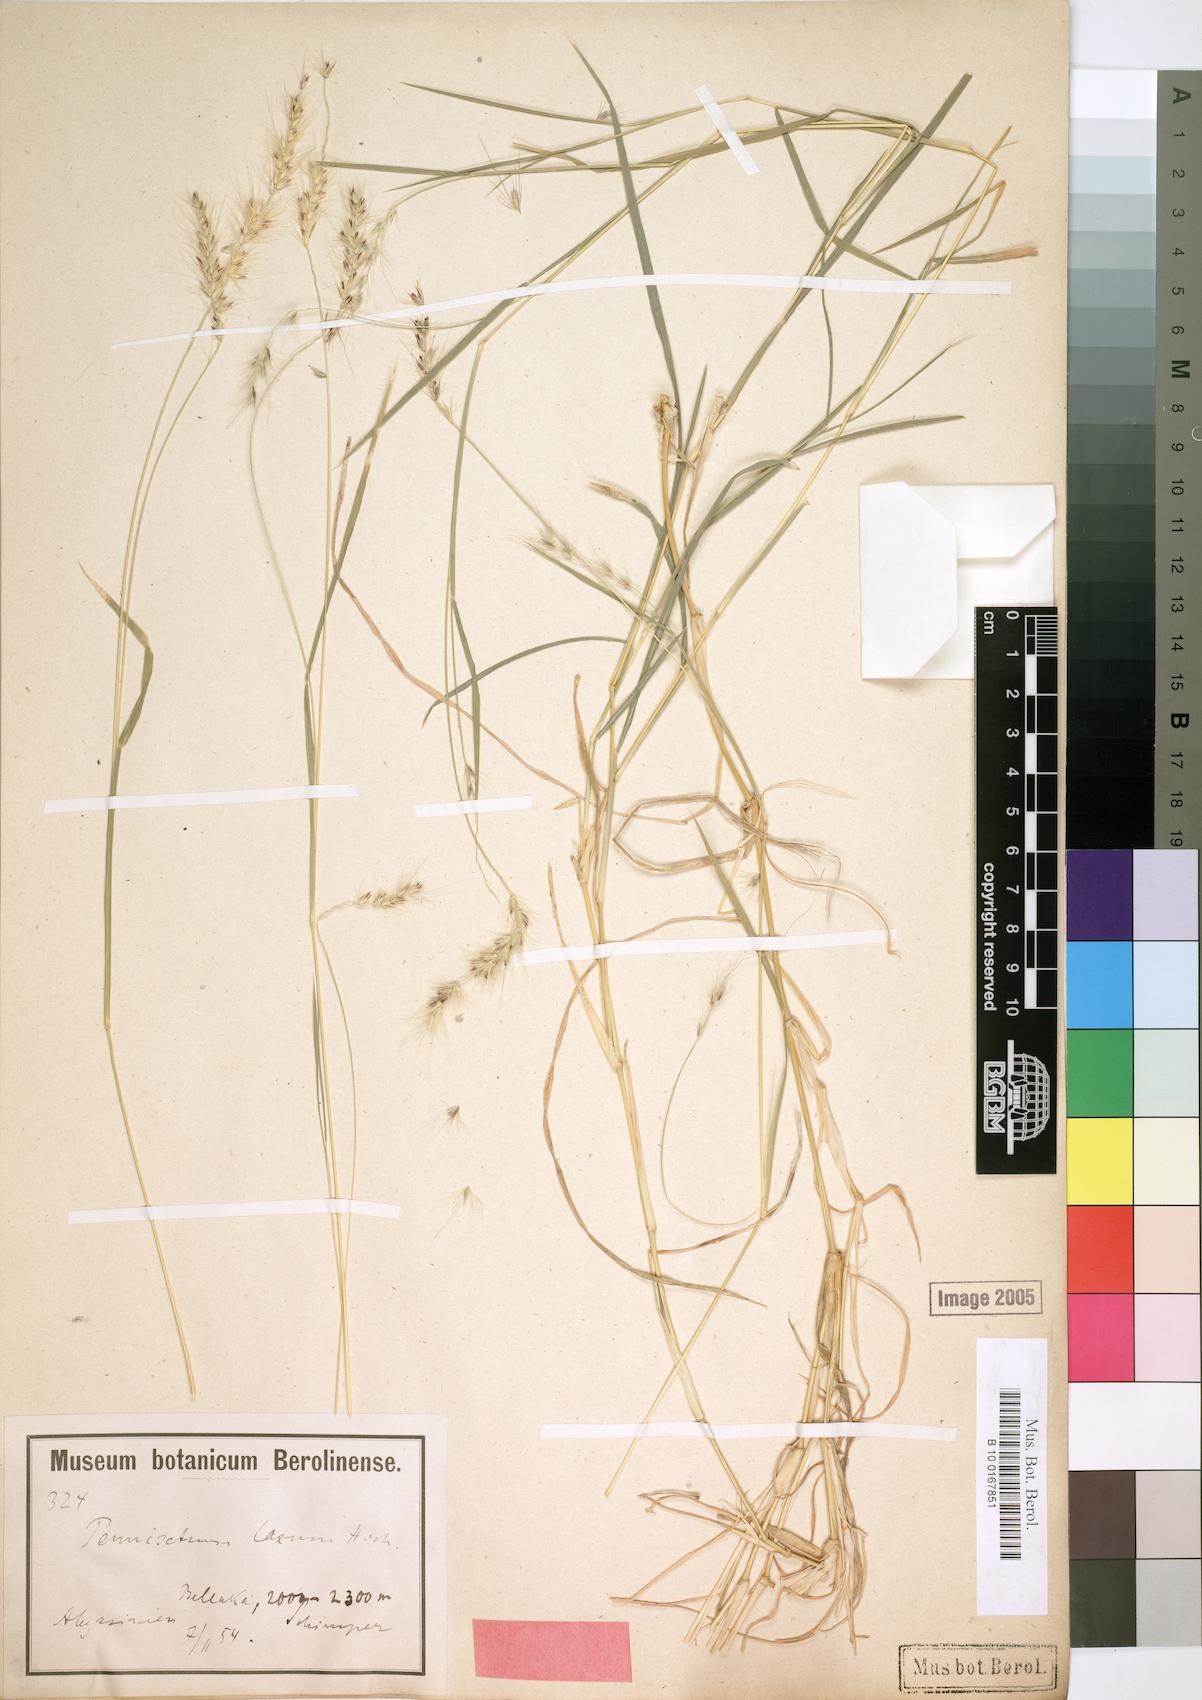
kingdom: Plantae
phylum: Tracheophyta
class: Liliopsida
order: Poales
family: Poaceae
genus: Cenchrus
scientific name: Cenchrus glaucifolius
